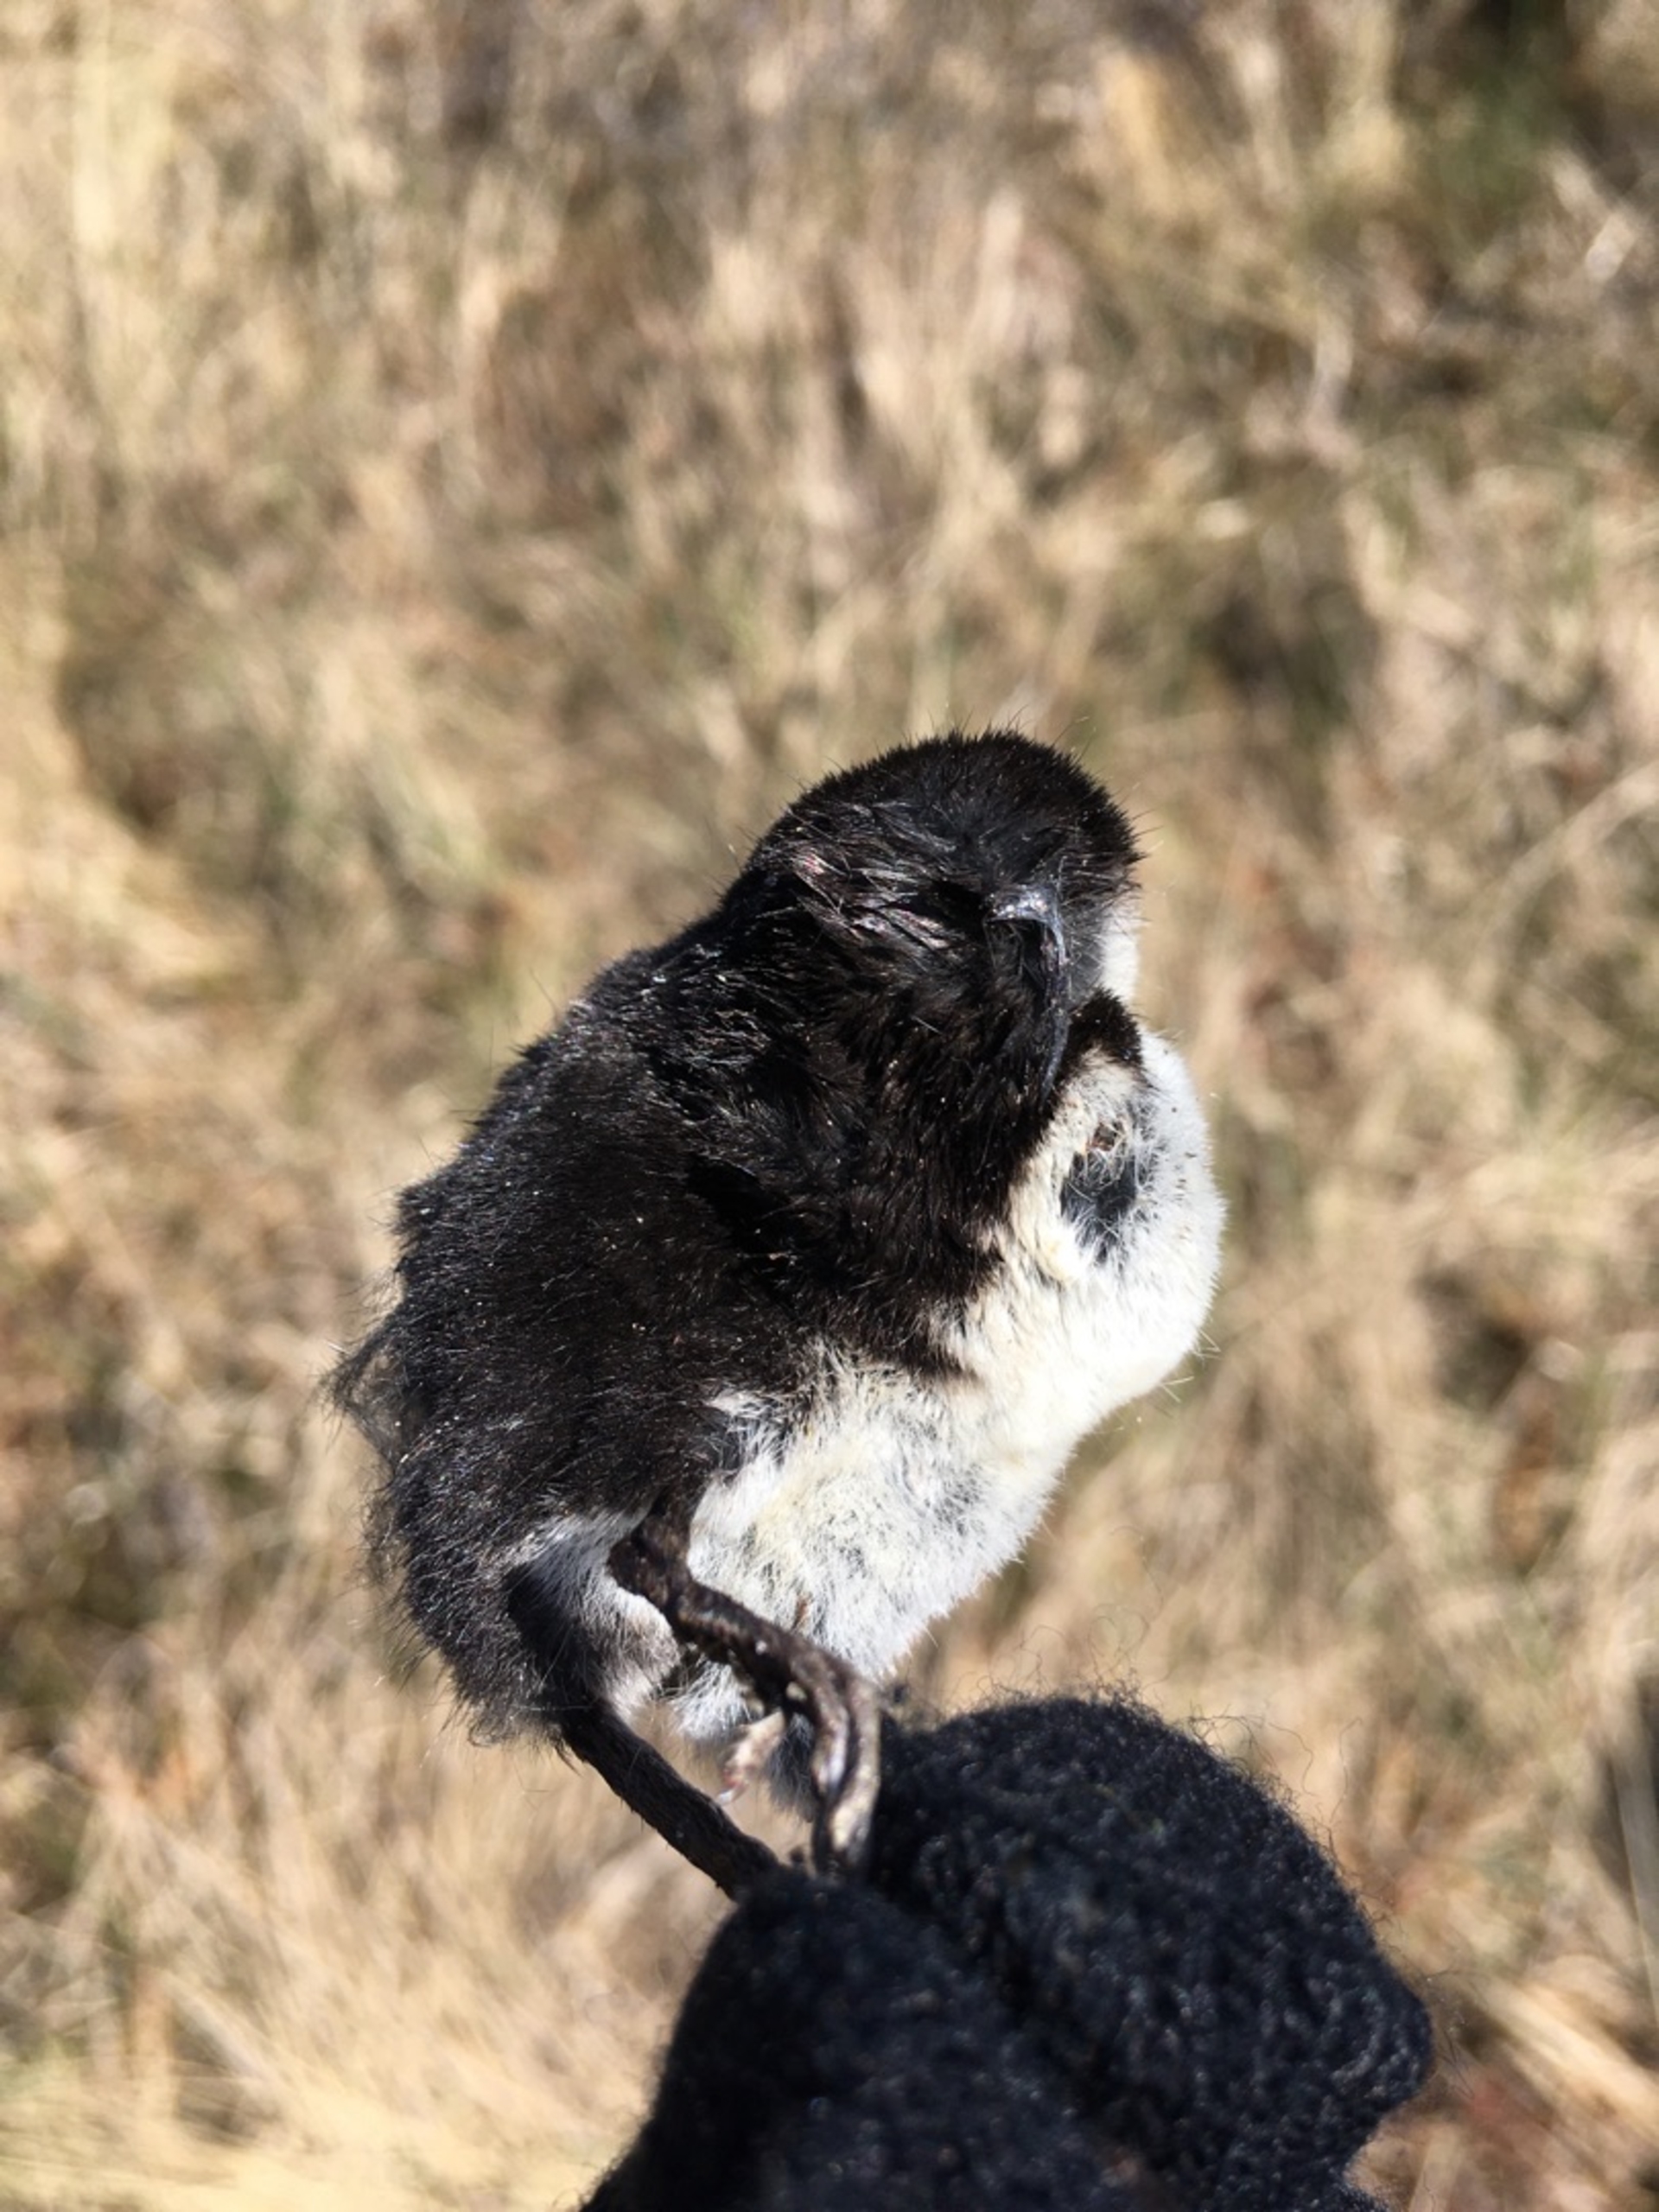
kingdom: Animalia
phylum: Chordata
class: Mammalia
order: Soricomorpha
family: Soricidae
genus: Neomys
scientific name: Neomys fodiens
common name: Vandspidsmus
